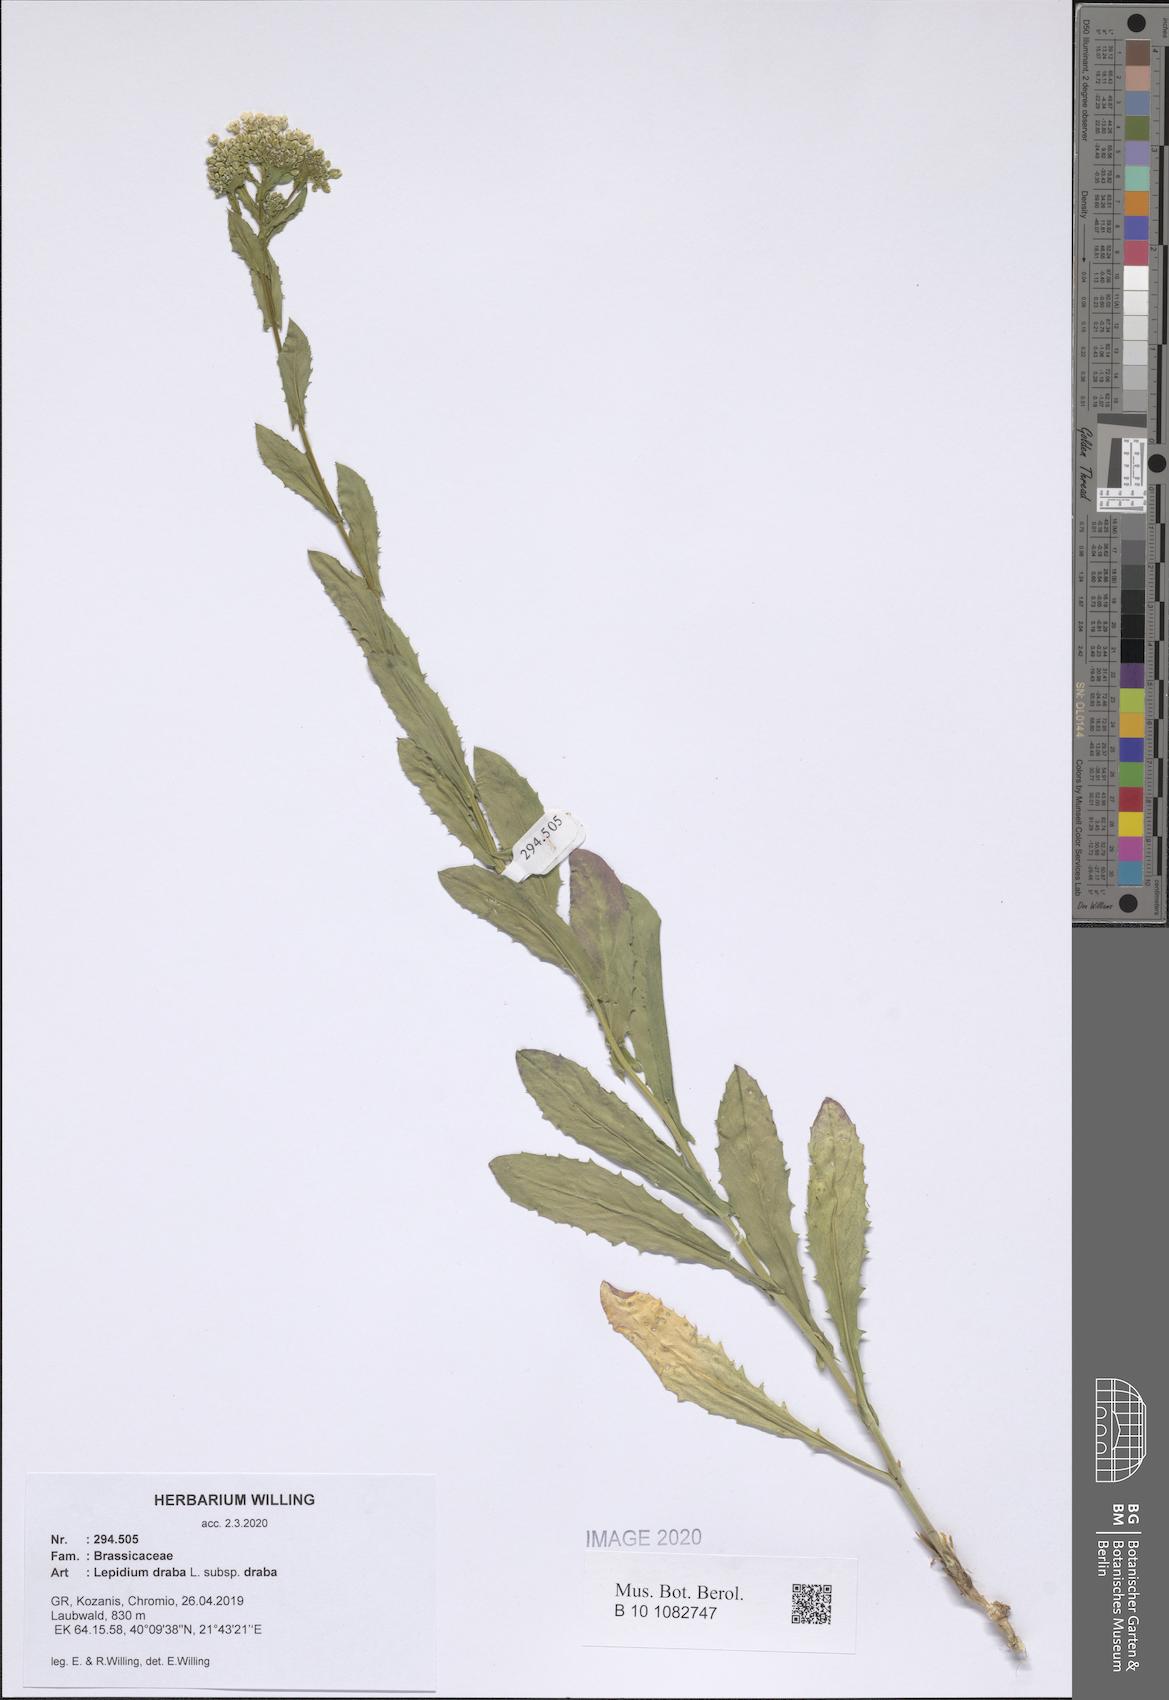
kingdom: Plantae
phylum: Tracheophyta
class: Magnoliopsida
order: Brassicales
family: Brassicaceae
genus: Lepidium
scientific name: Lepidium draba
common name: Hoary cress
